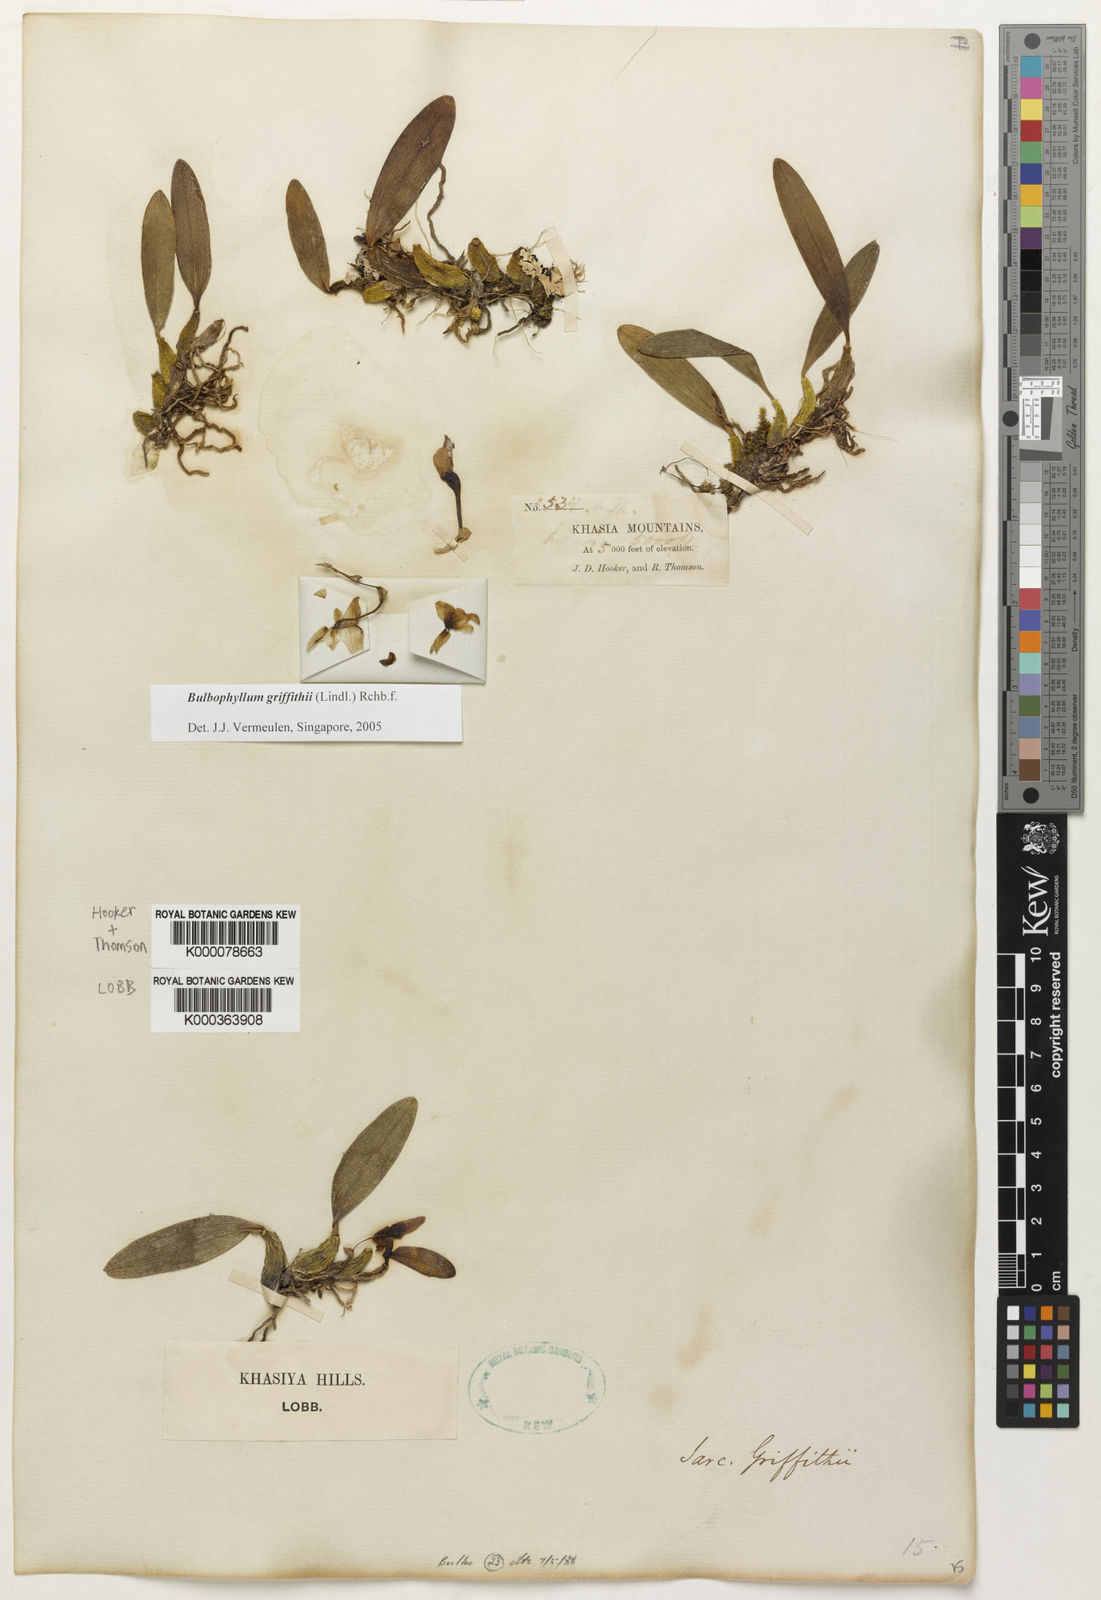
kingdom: Plantae
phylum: Tracheophyta
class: Liliopsida
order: Asparagales
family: Orchidaceae
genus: Bulbophyllum
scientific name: Bulbophyllum griffithii
